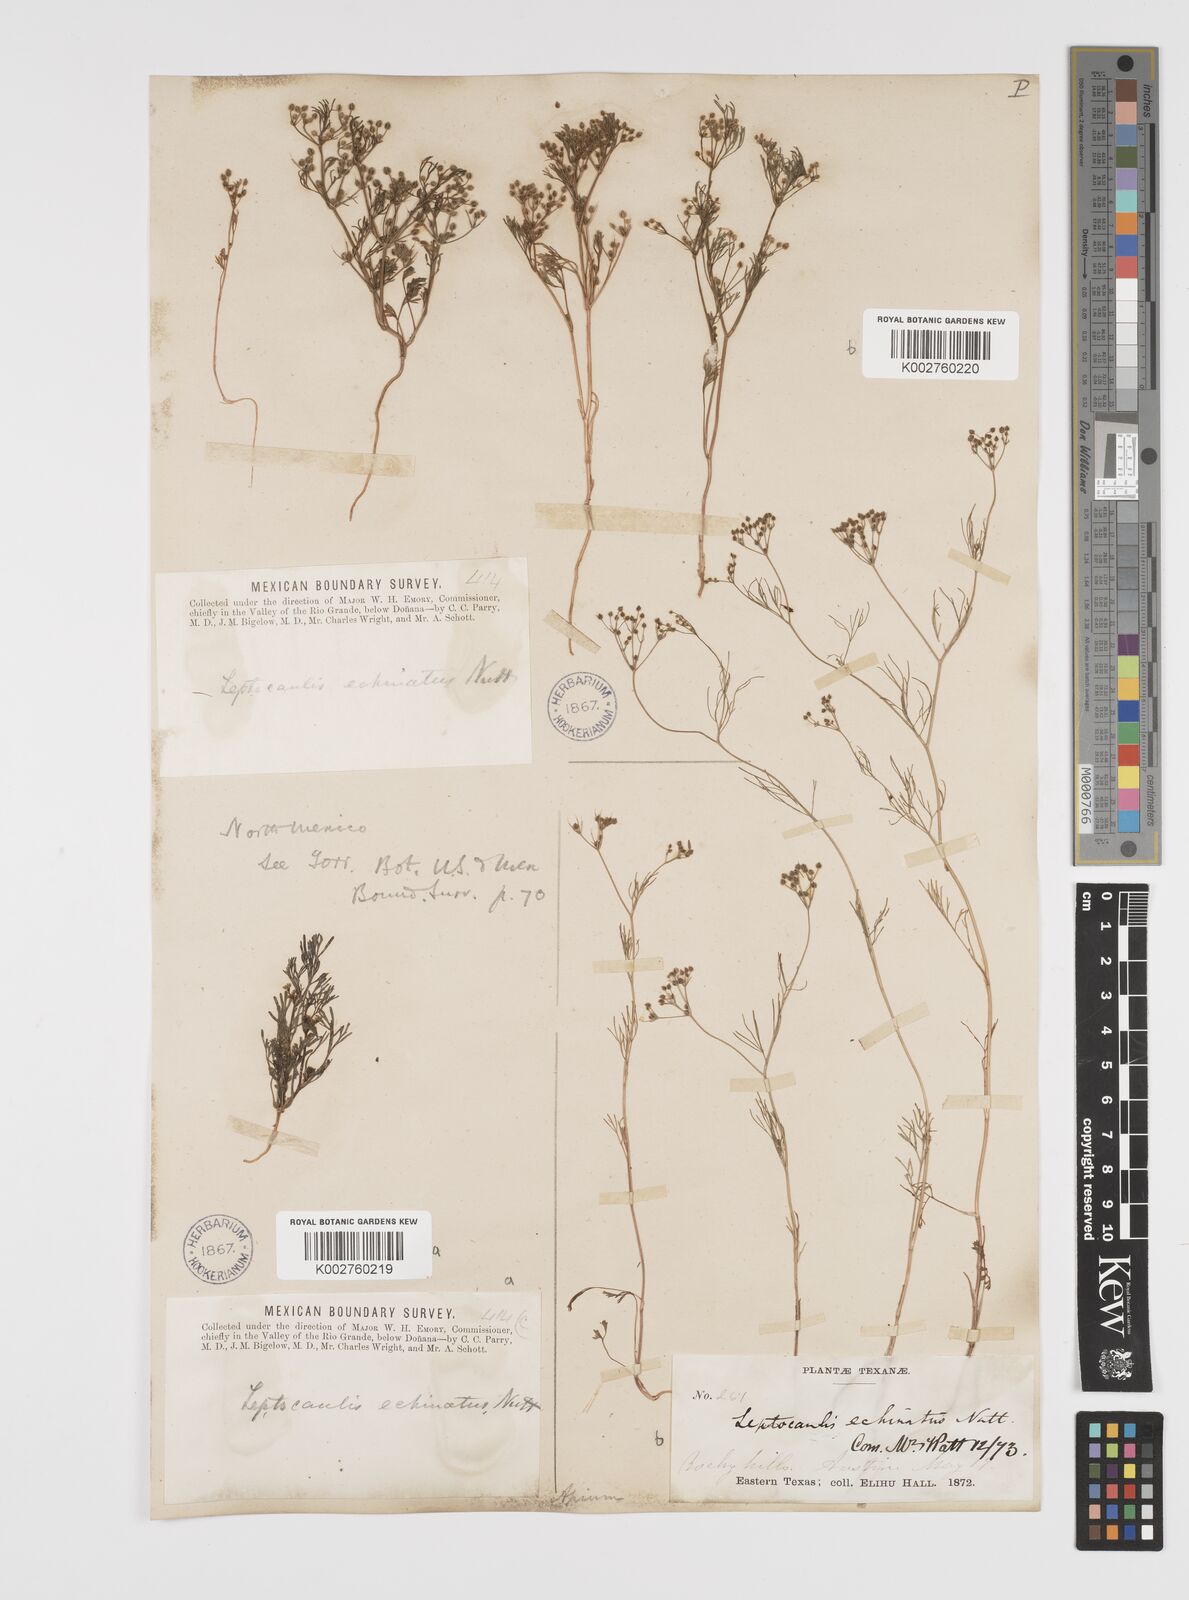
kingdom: Plantae
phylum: Tracheophyta
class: Magnoliopsida
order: Apiales
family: Apiaceae
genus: Spermolepis
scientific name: Spermolepis echinata
